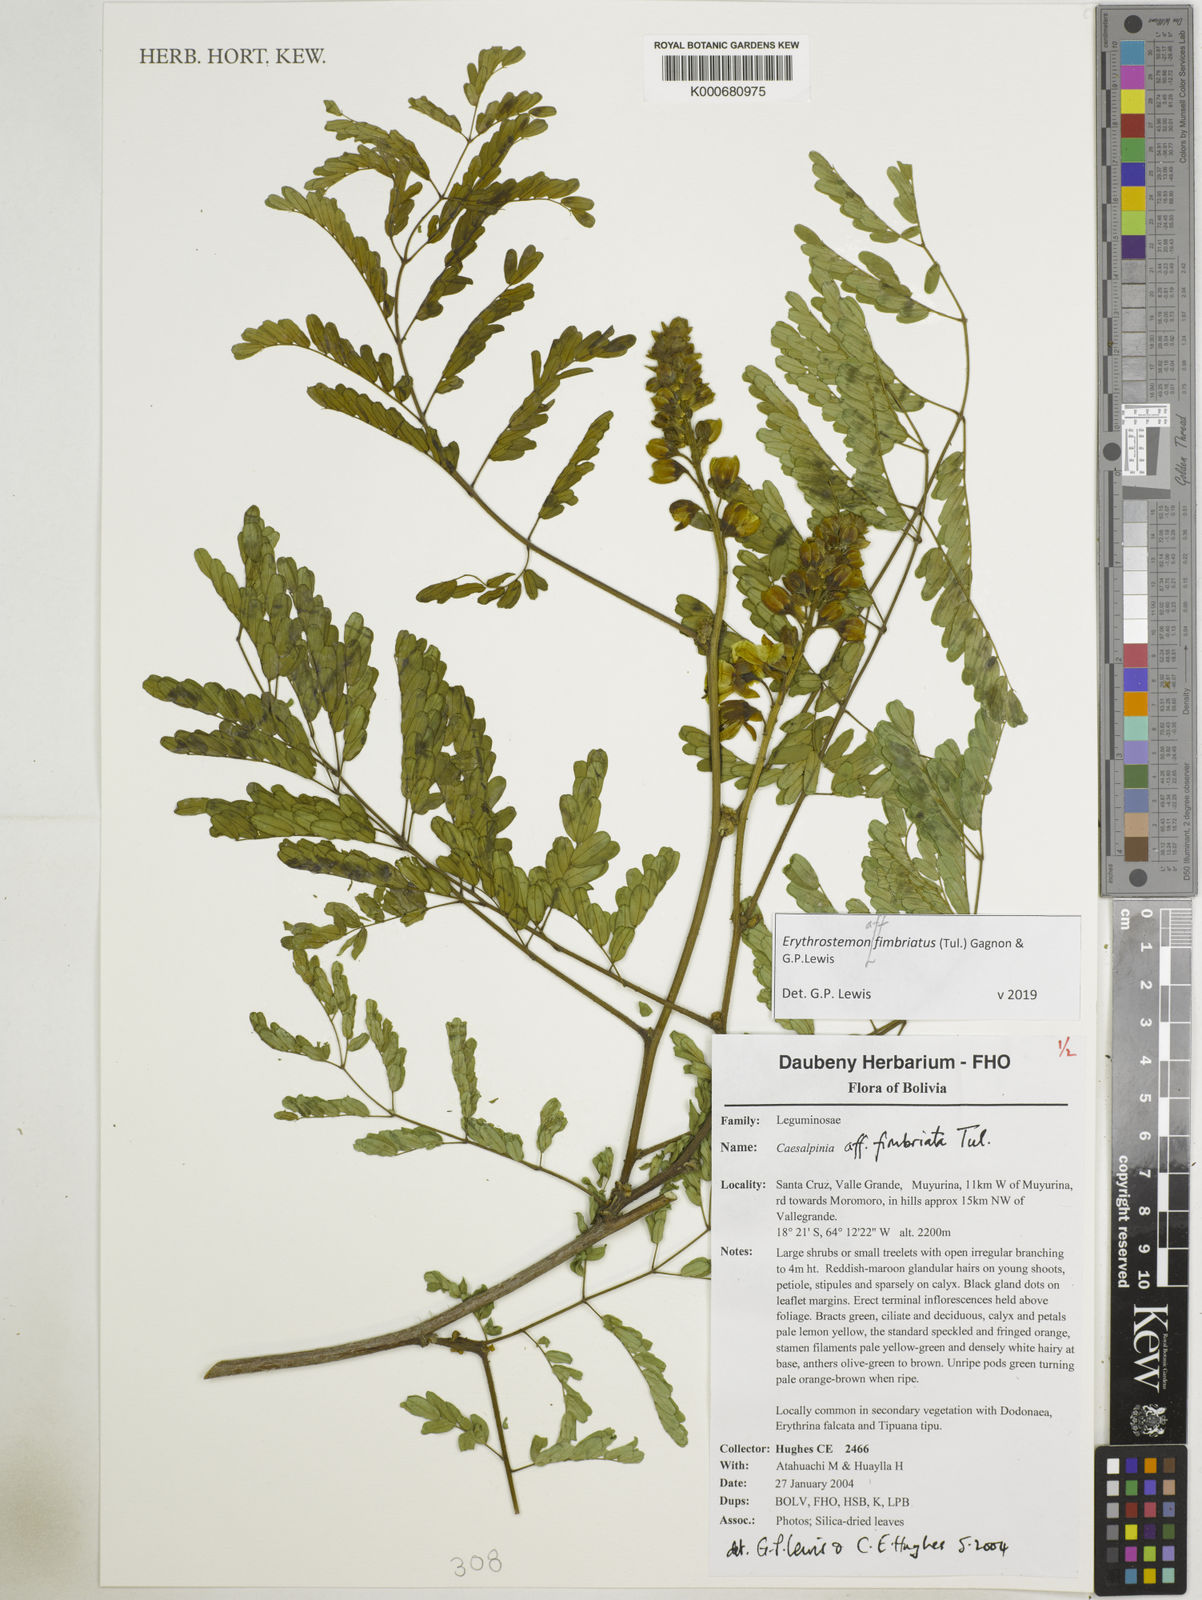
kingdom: Plantae
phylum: Tracheophyta
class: Magnoliopsida
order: Fabales
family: Fabaceae
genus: Erythrostemon
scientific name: Erythrostemon fimbriatus
